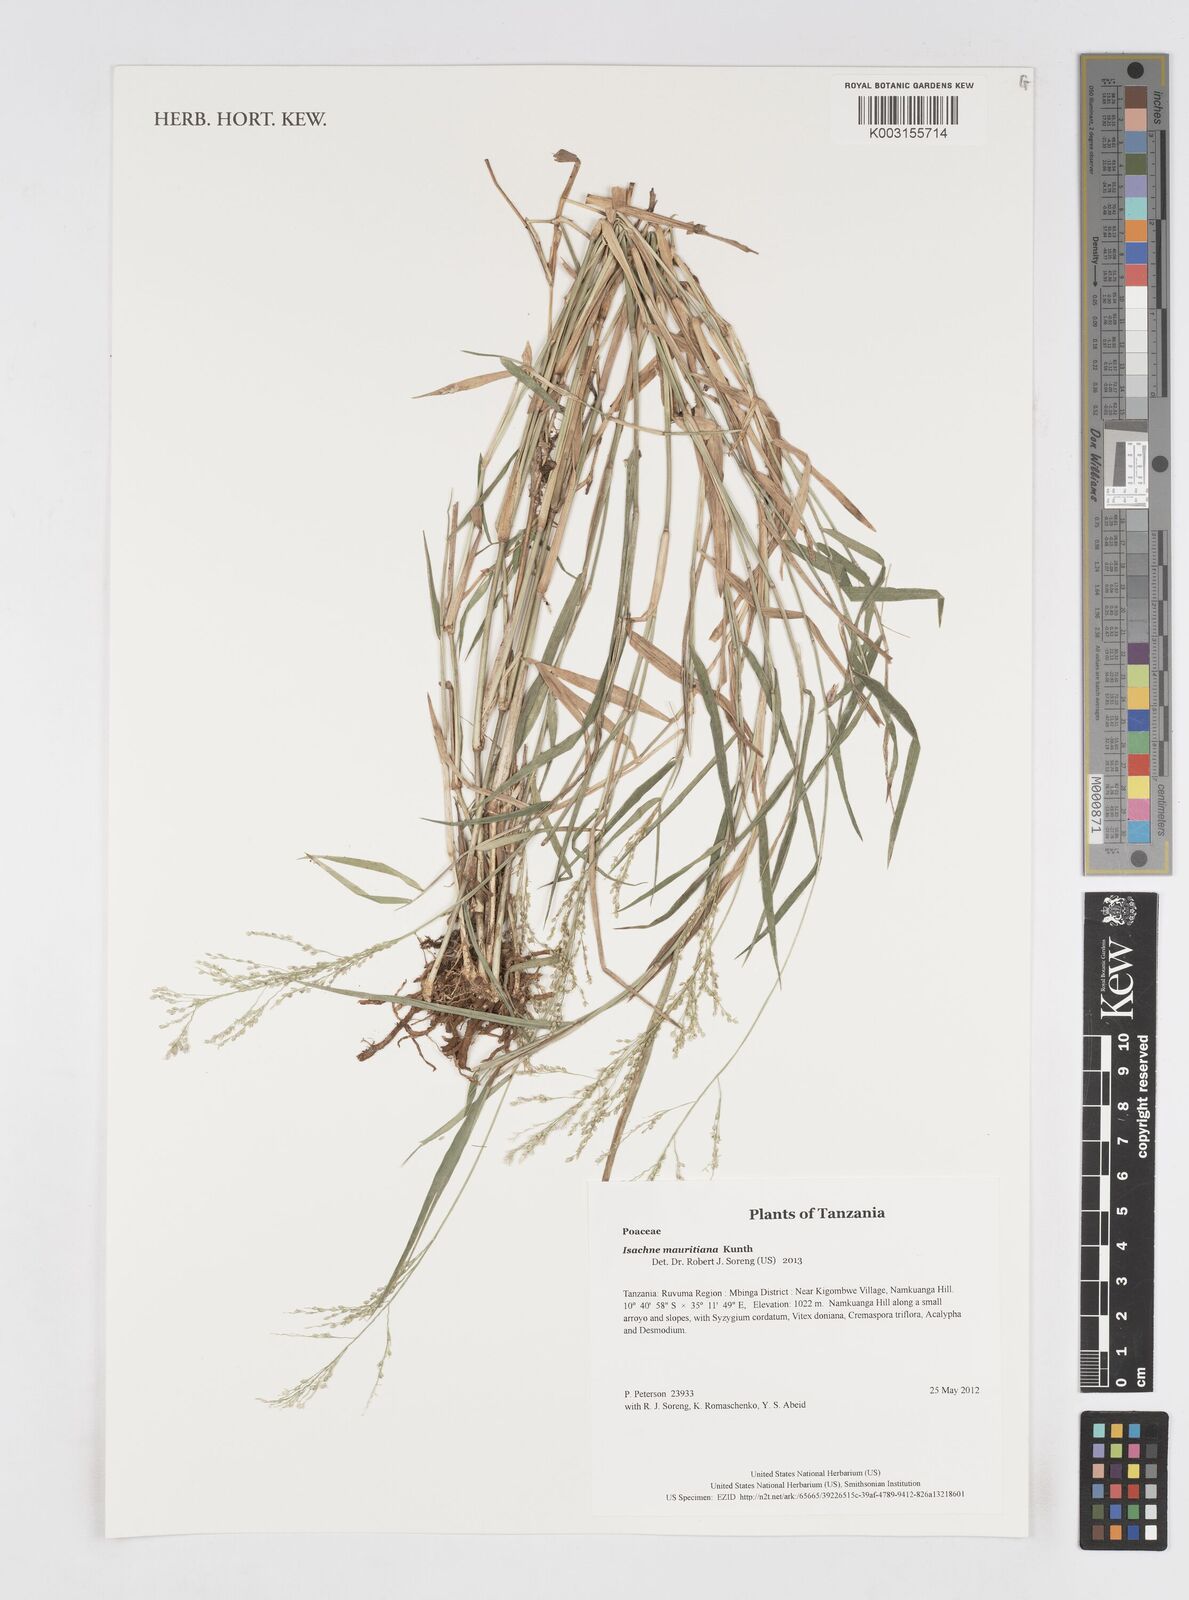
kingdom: Plantae
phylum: Tracheophyta
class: Liliopsida
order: Poales
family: Poaceae
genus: Isachne
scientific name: Isachne mauritiana
